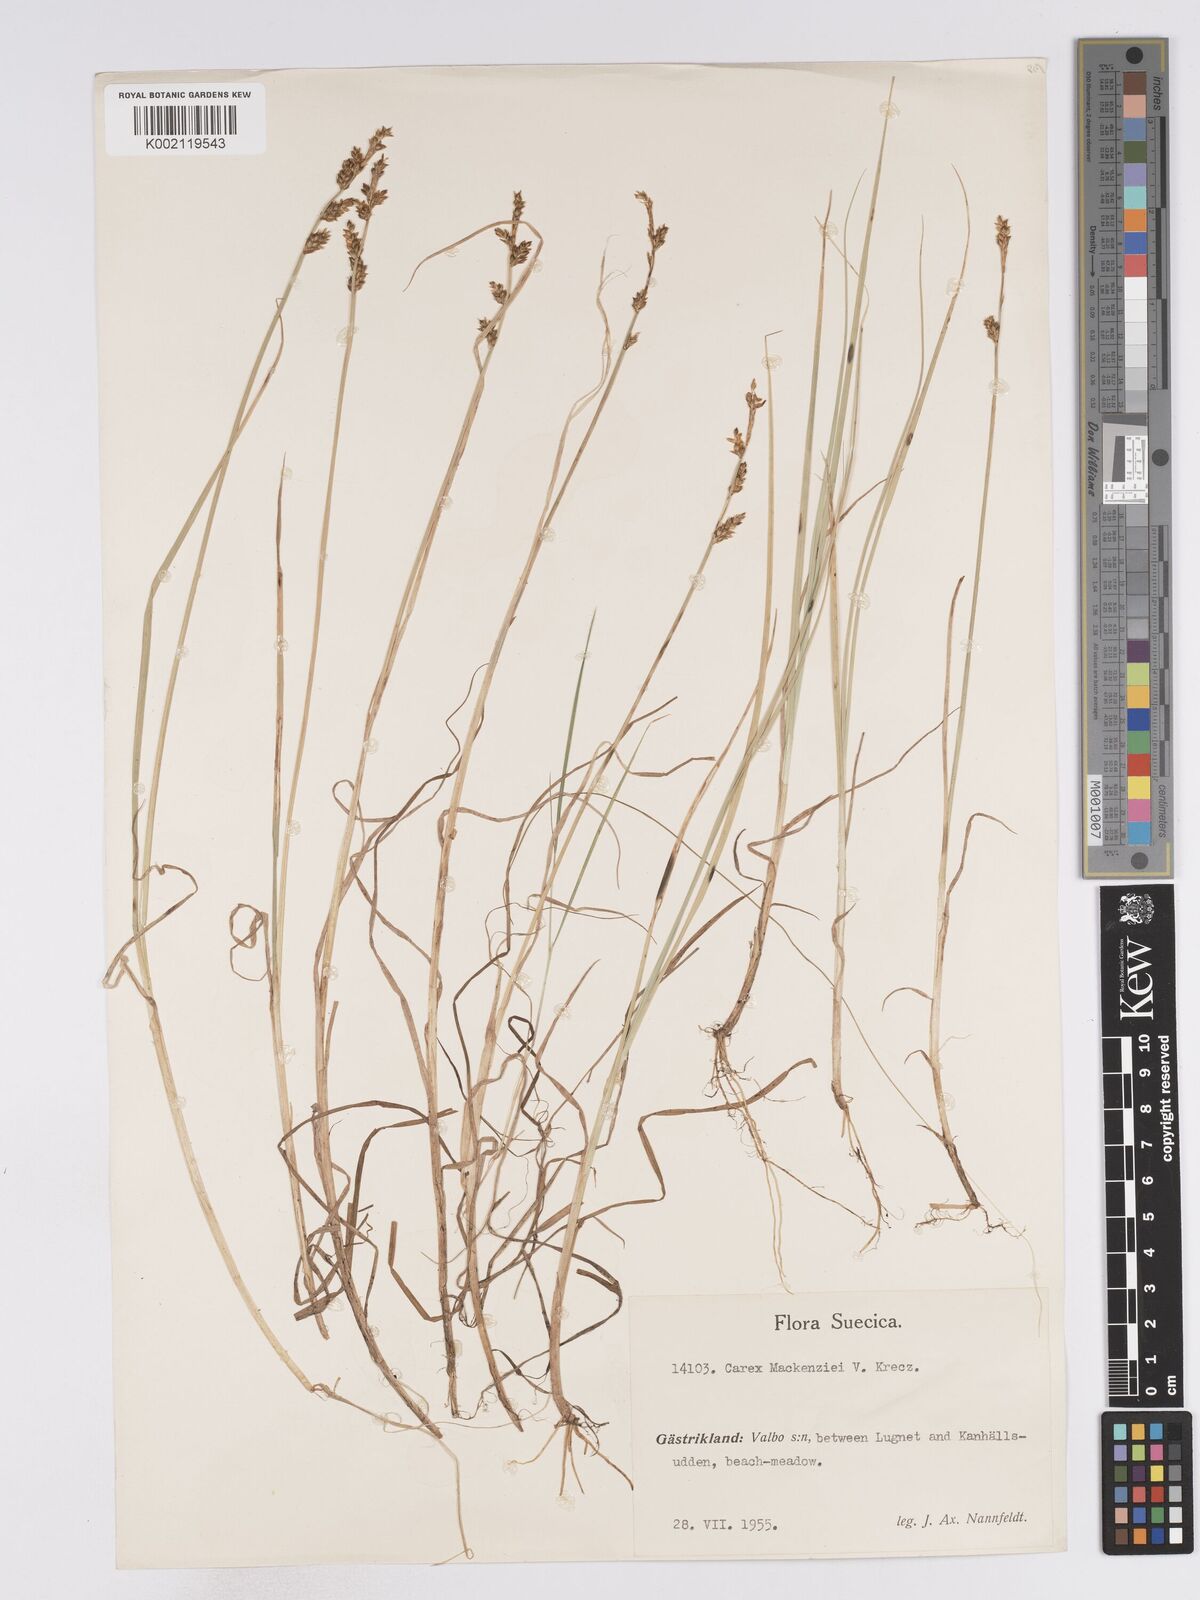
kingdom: Plantae
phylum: Tracheophyta
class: Liliopsida
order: Poales
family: Cyperaceae
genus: Carex
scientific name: Carex mackenziei
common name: Mackenzie's sedge
